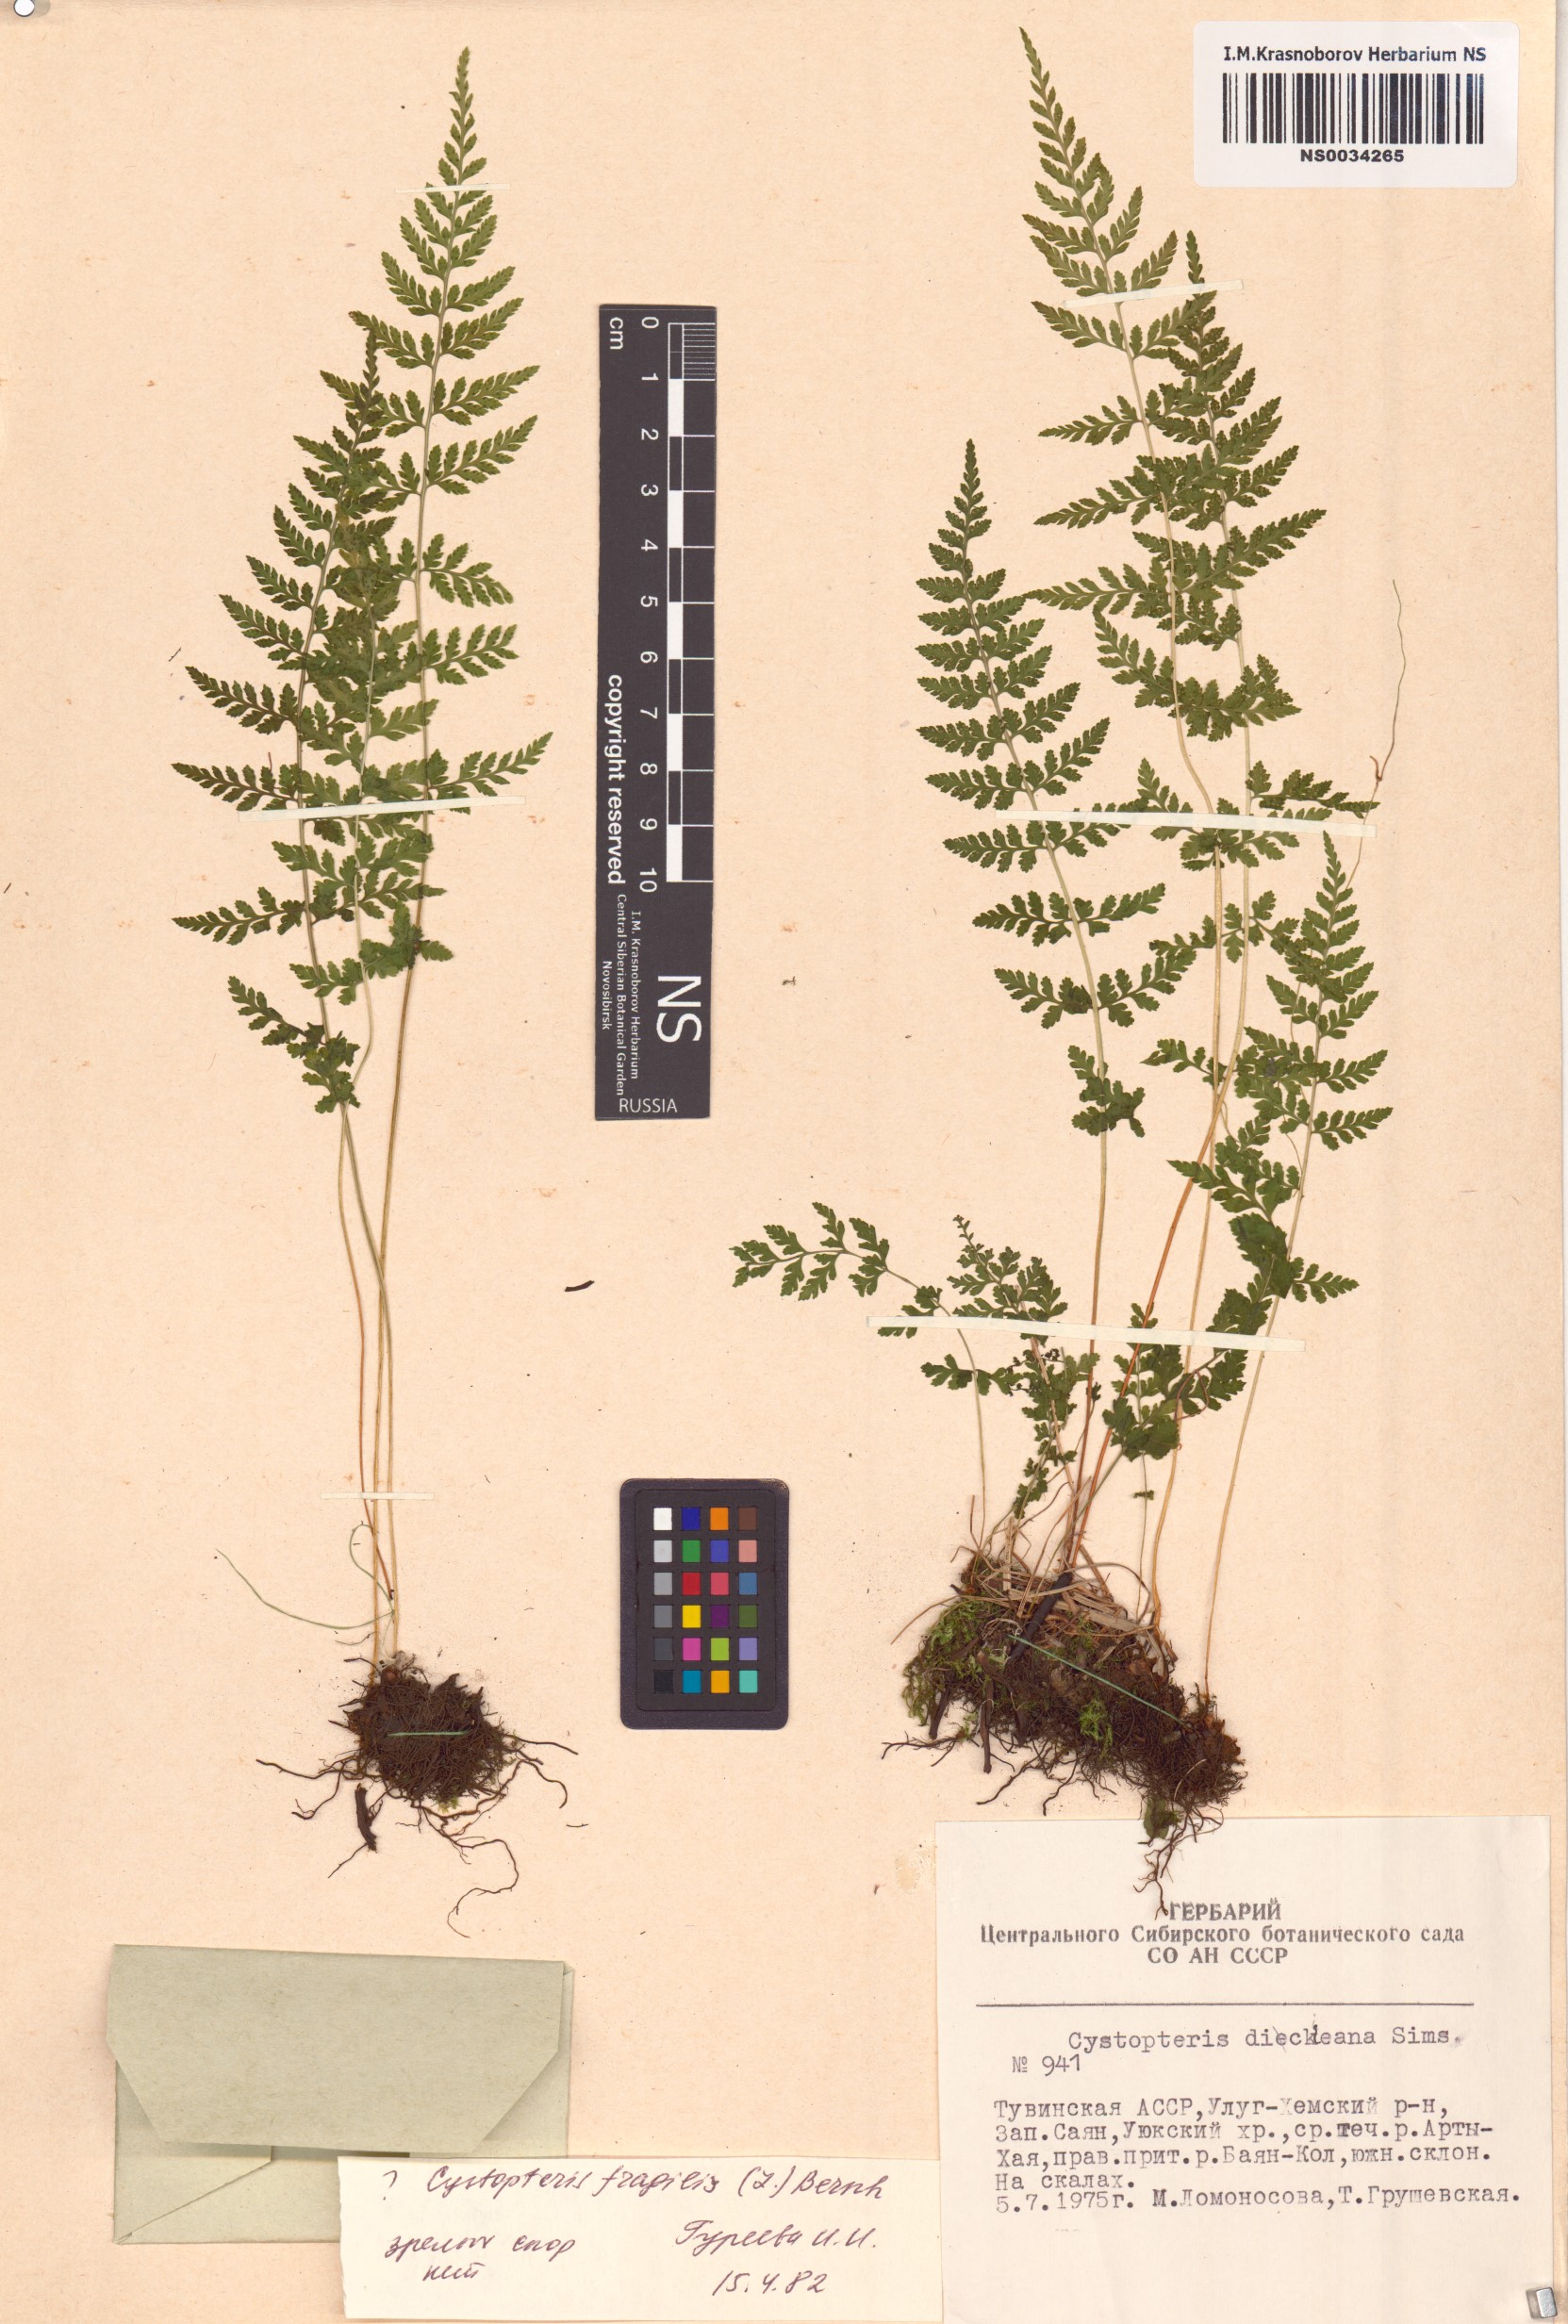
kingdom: Plantae
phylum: Tracheophyta
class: Polypodiopsida
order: Polypodiales
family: Cystopteridaceae
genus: Cystopteris
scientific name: Cystopteris fragilis
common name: Brittle bladder fern
